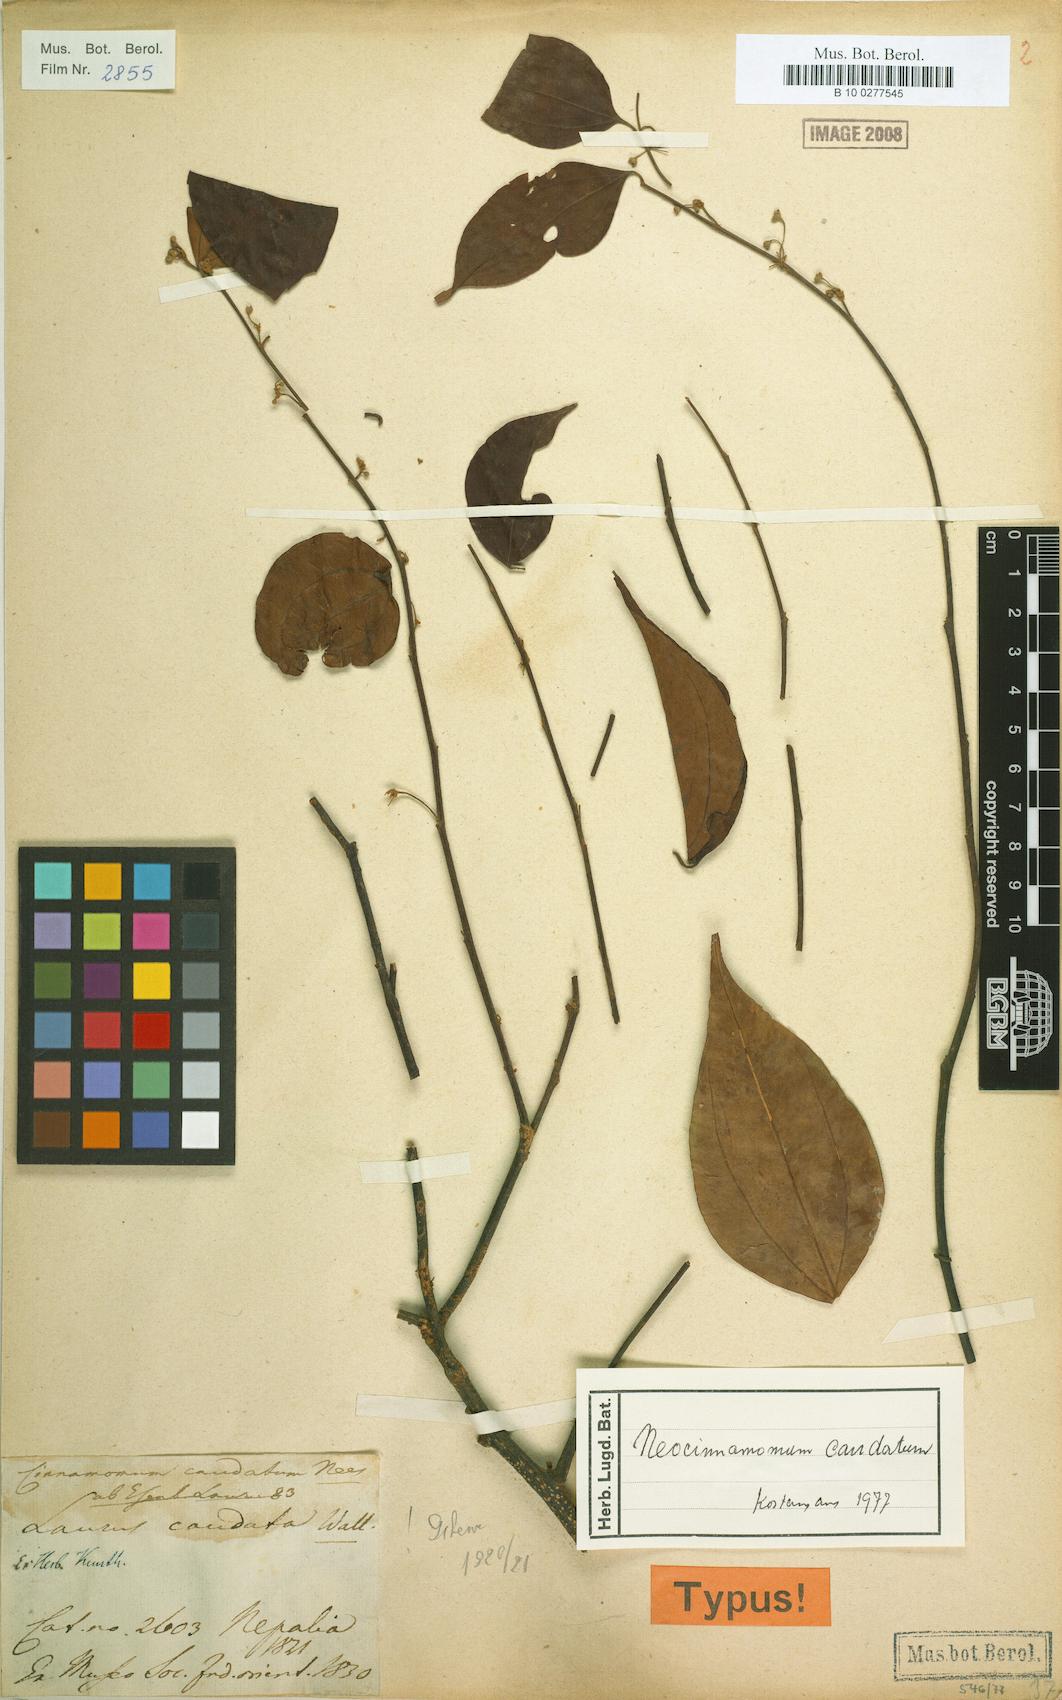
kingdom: Plantae
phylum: Tracheophyta
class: Magnoliopsida
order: Laurales
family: Lauraceae
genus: Neocinnamomum
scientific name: Neocinnamomum caudatum
